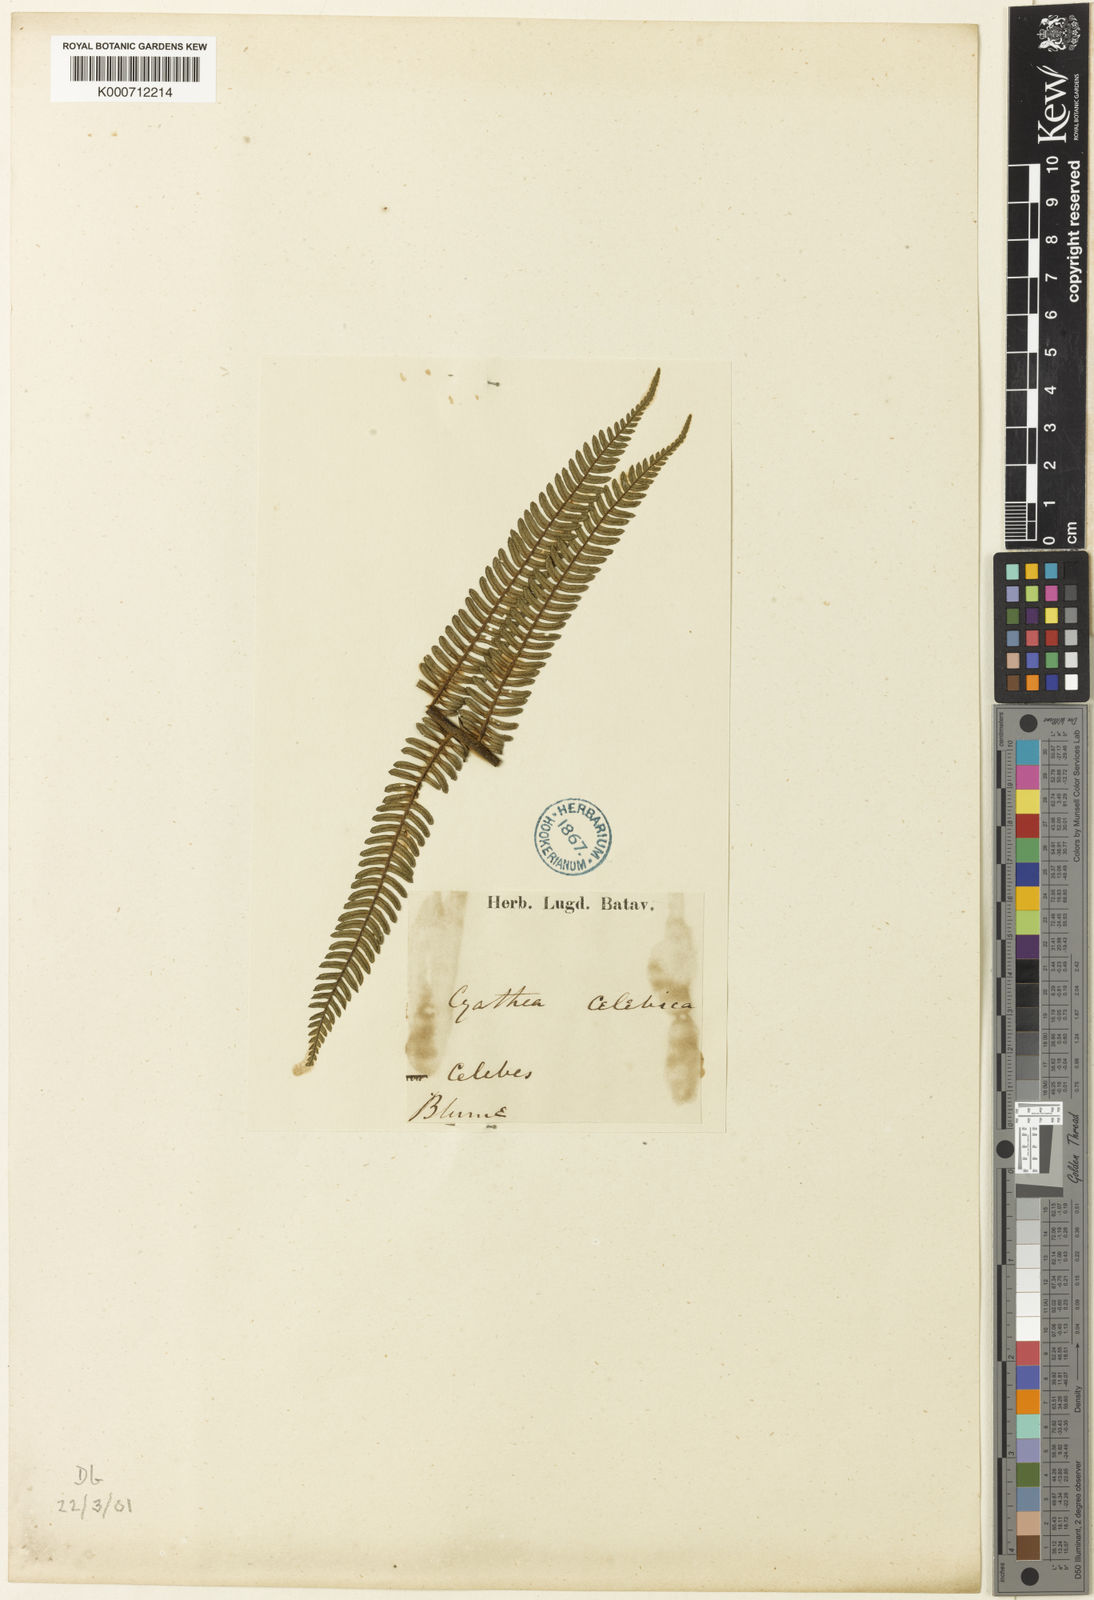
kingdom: Plantae
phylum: Tracheophyta
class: Polypodiopsida
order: Cyatheales
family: Cyatheaceae
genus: Sphaeropteris
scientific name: Sphaeropteris celebica
